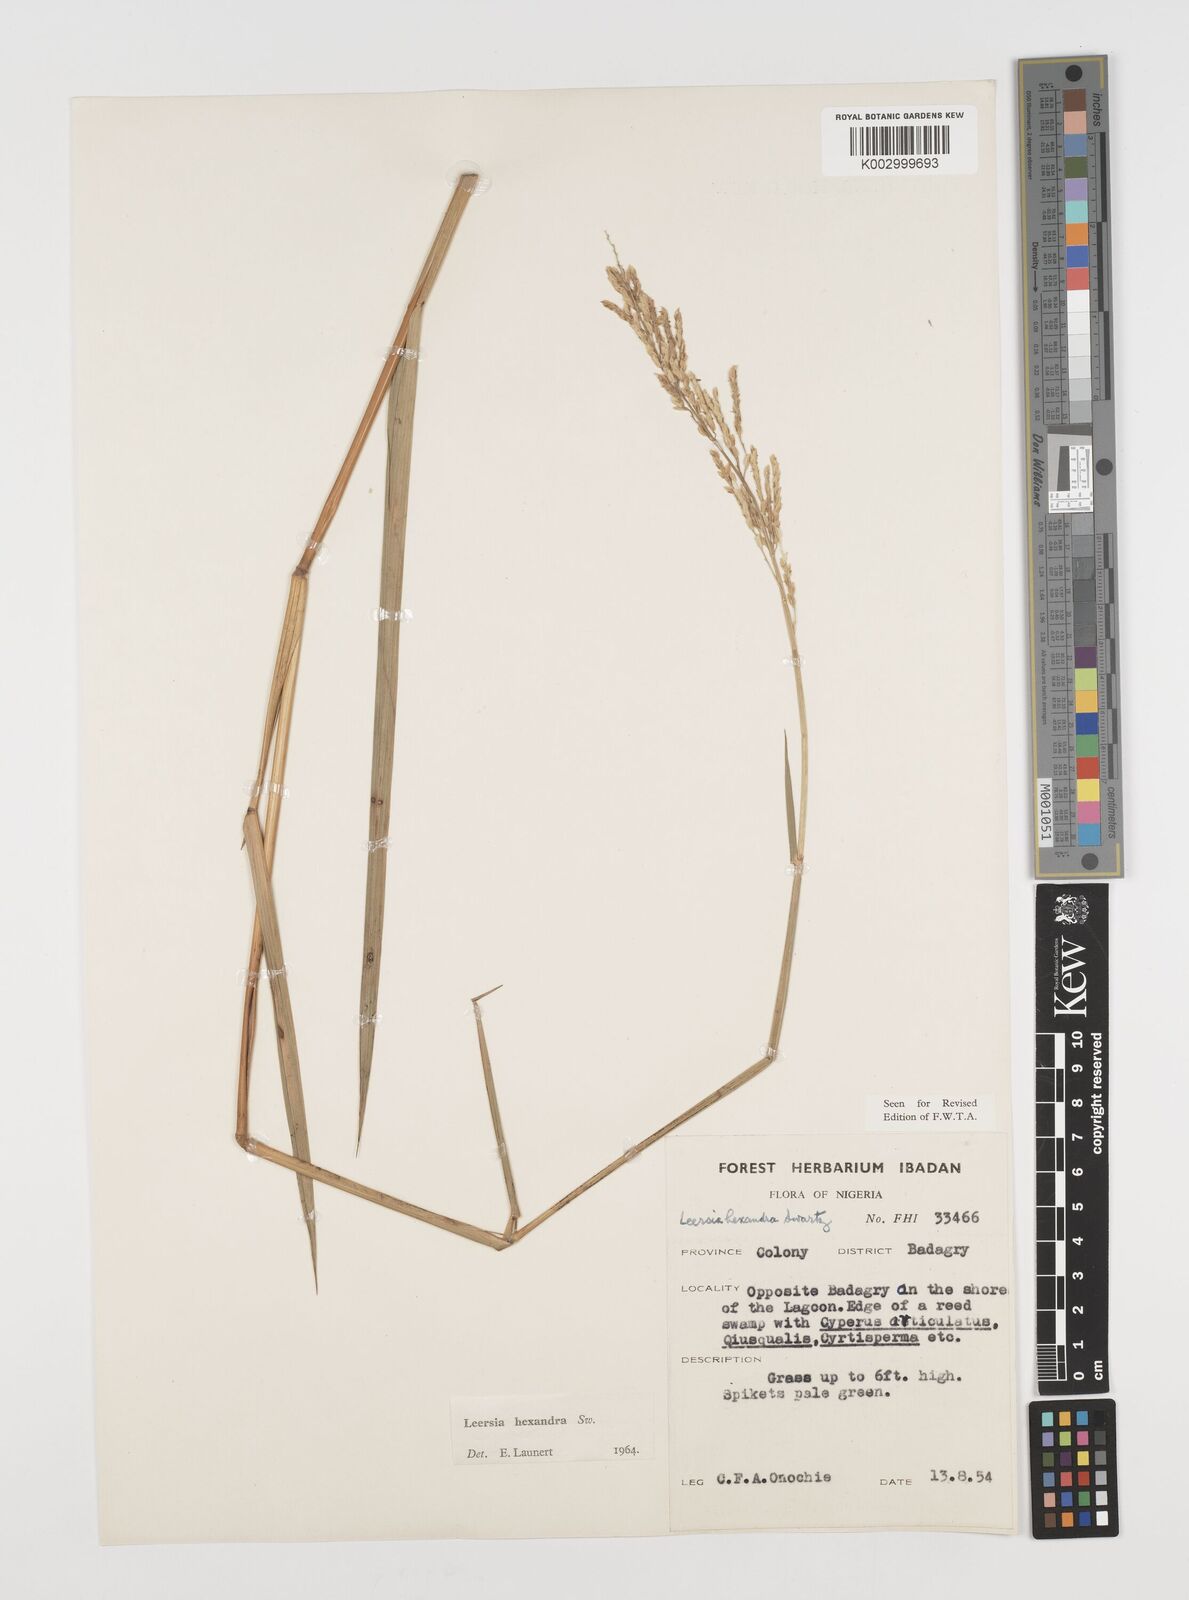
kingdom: Plantae
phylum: Tracheophyta
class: Liliopsida
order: Poales
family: Poaceae
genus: Leersia
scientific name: Leersia hexandra
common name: Southern cut grass
